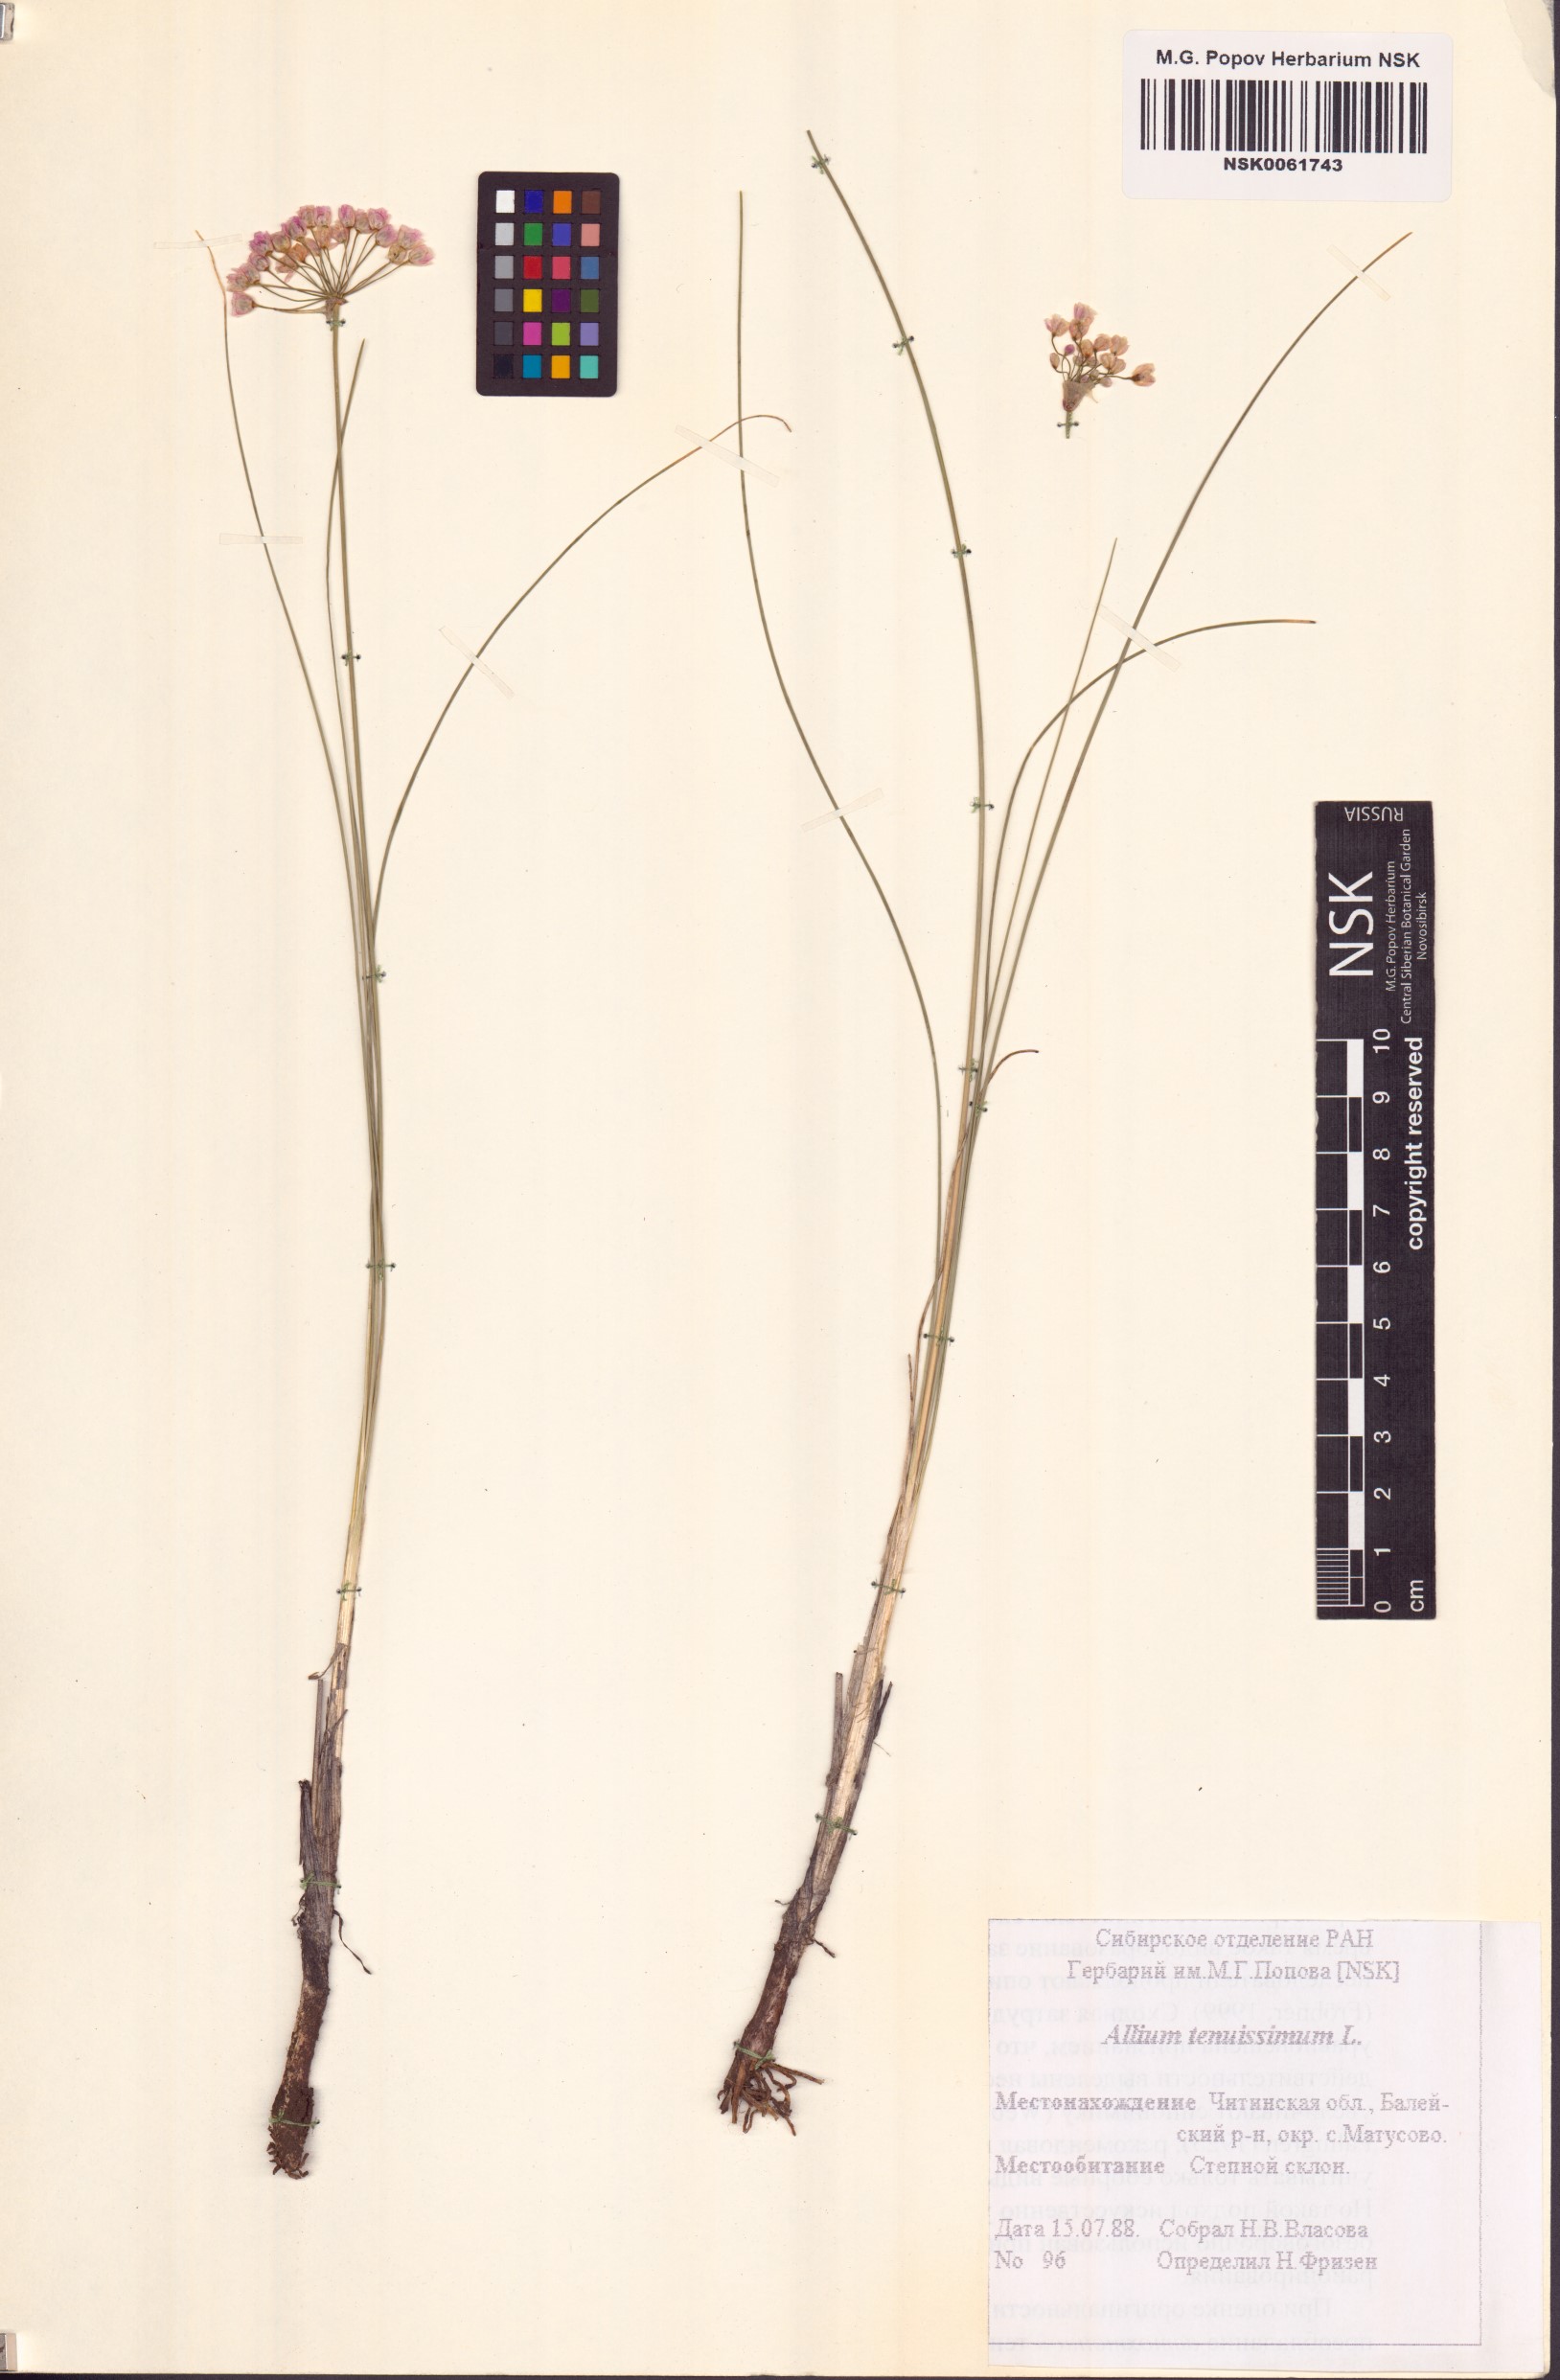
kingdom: Plantae
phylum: Tracheophyta
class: Liliopsida
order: Asparagales
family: Amaryllidaceae
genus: Allium
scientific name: Allium tenuissimum
